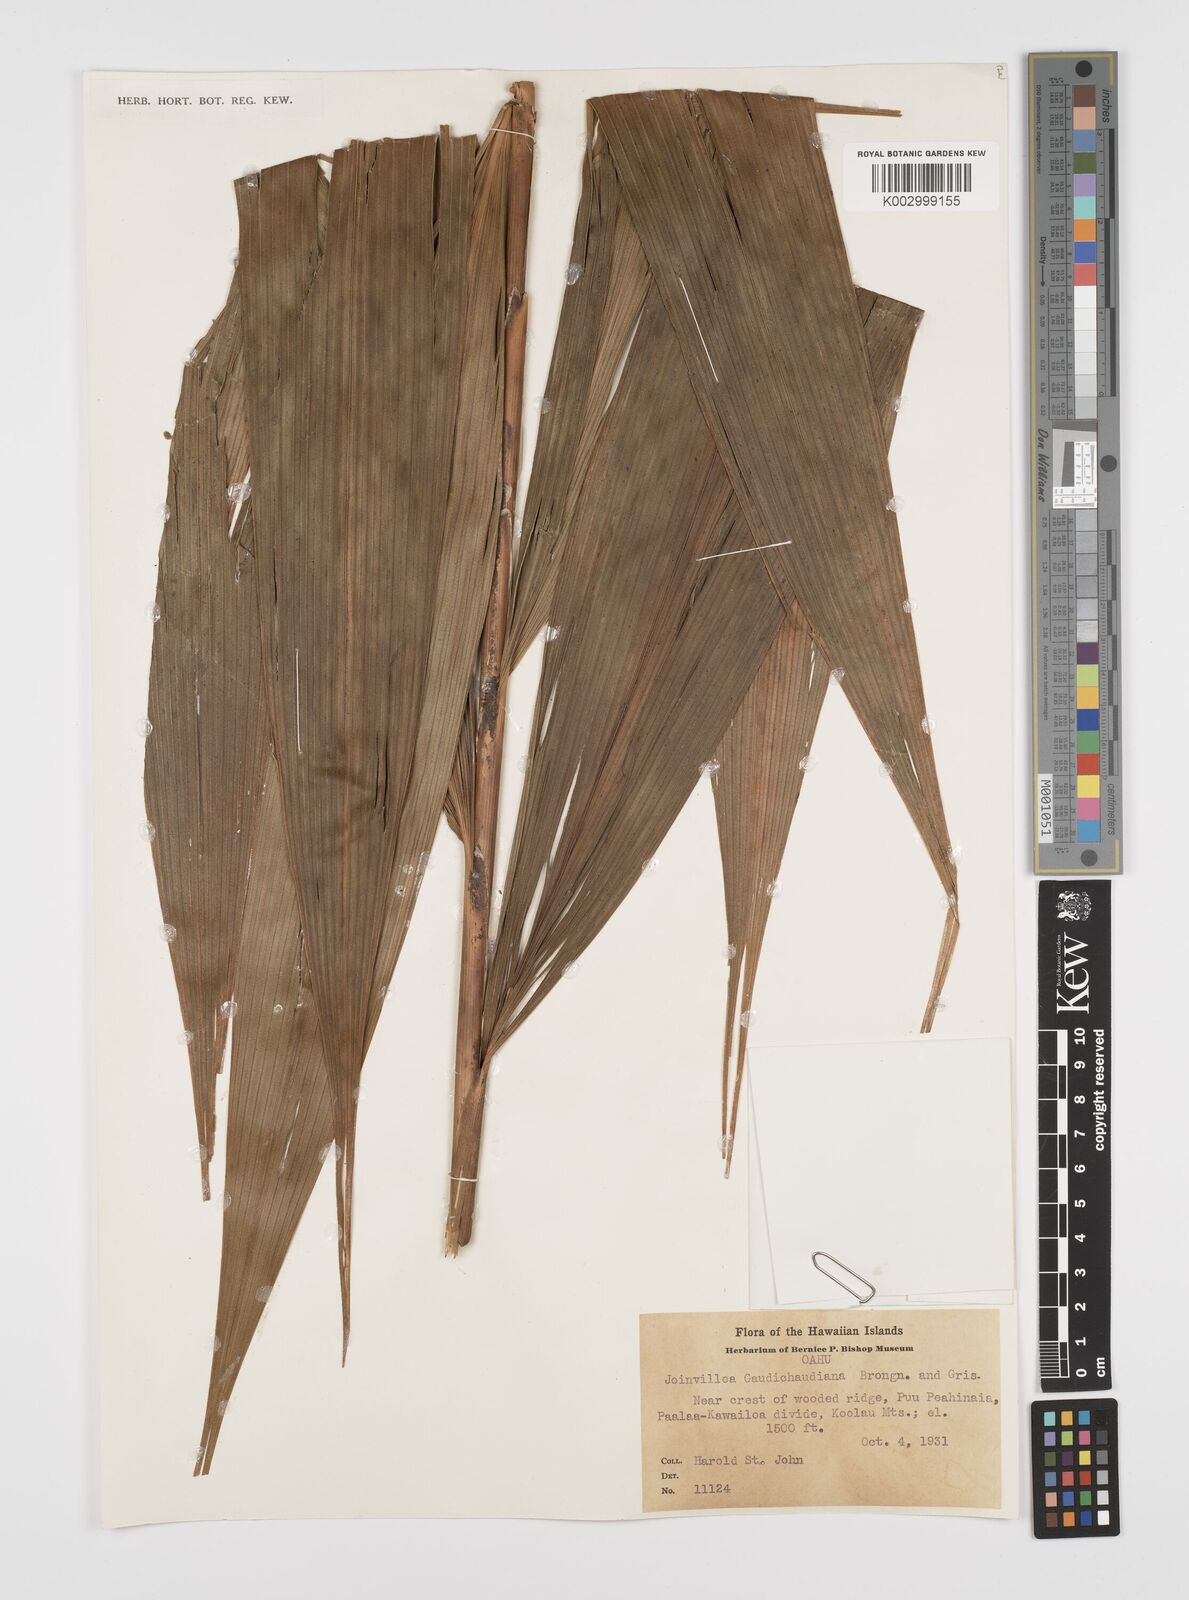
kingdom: Plantae
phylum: Tracheophyta
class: Liliopsida
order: Poales
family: Joinvilleaceae
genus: Joinvillea
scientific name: Joinvillea ascendens
